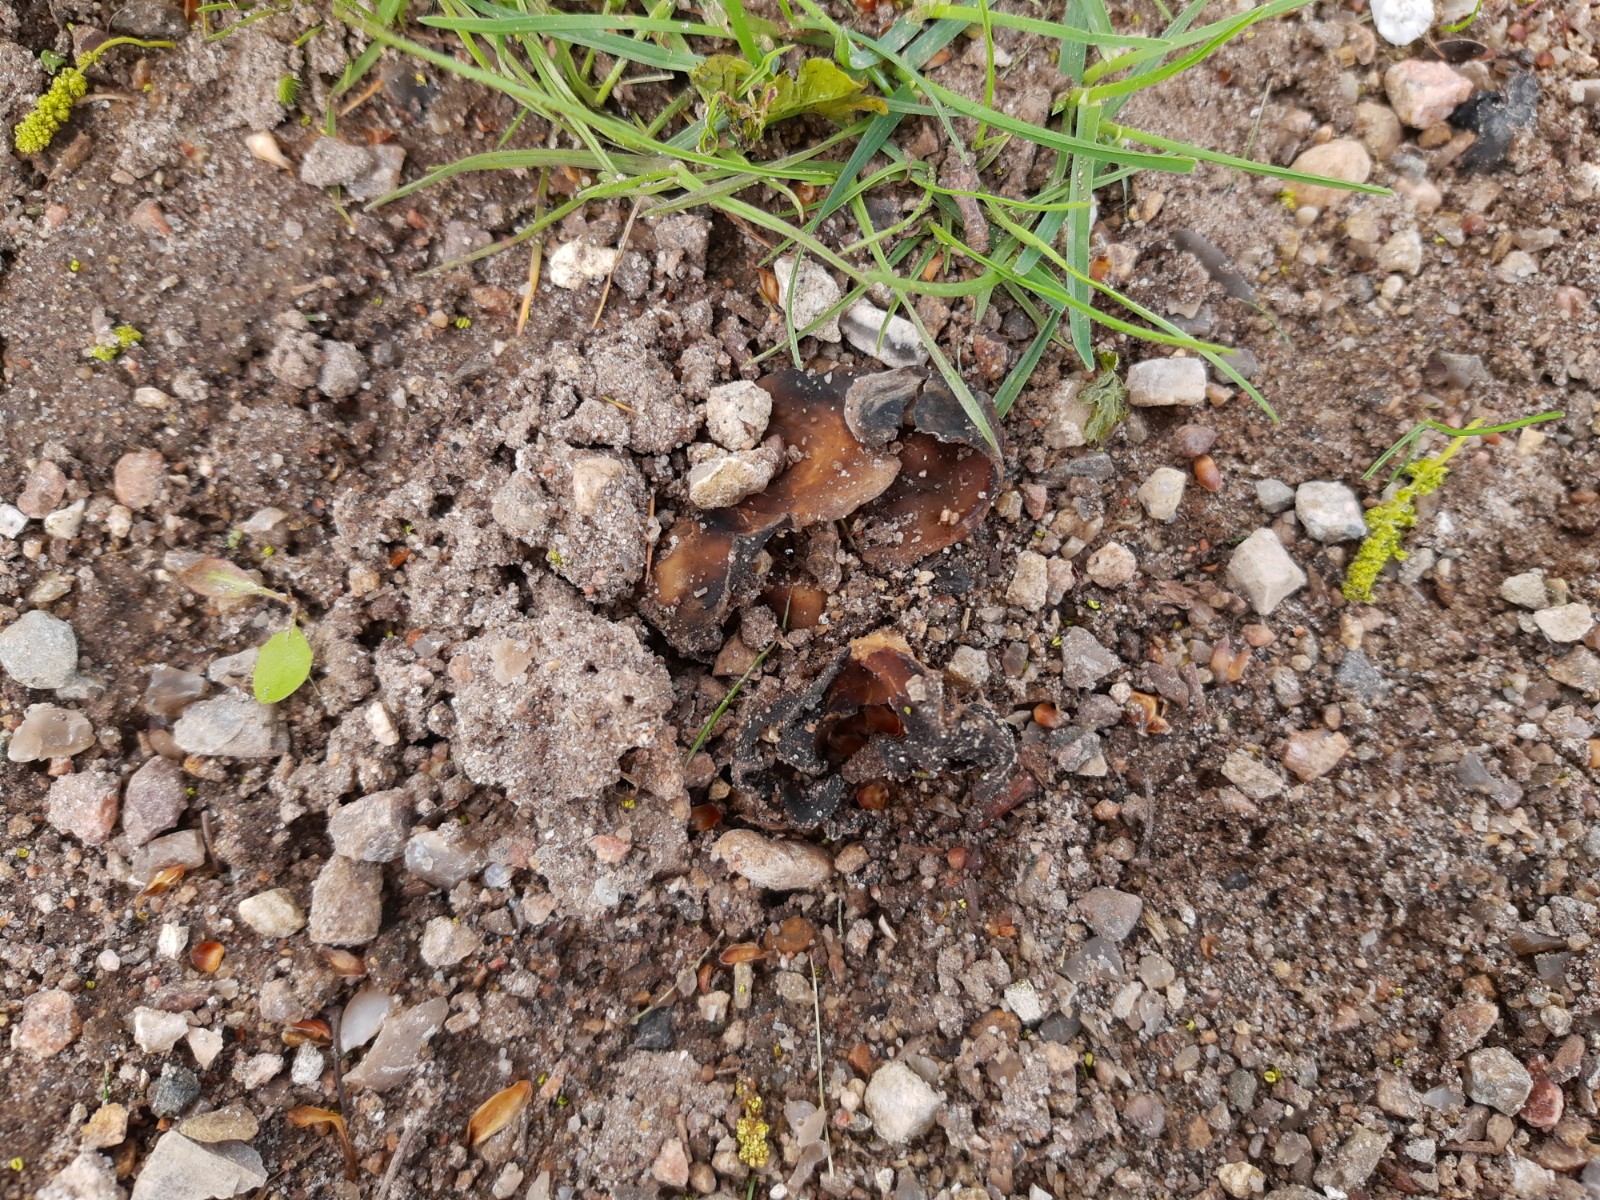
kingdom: Fungi
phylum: Ascomycota
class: Pezizomycetes
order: Pezizales
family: Morchellaceae
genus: Disciotis
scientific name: Disciotis venosa
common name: klor-bægermorkel
